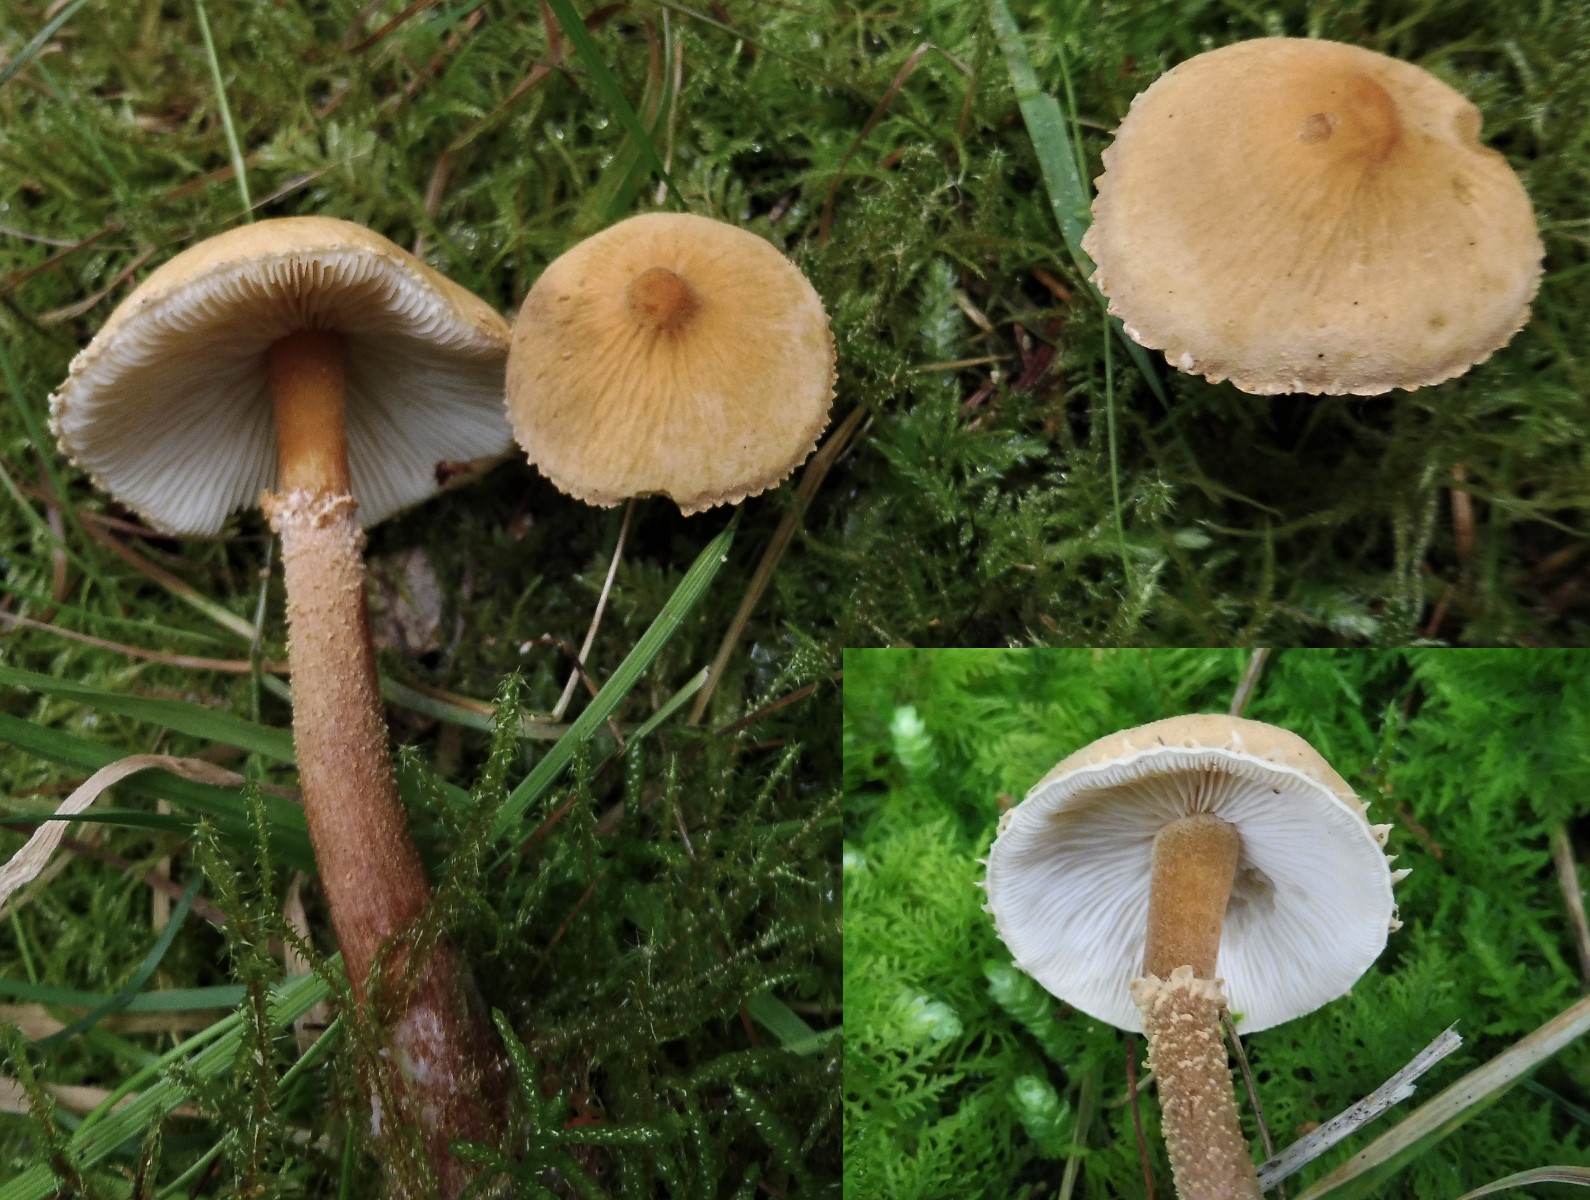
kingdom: Fungi
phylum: Basidiomycota
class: Agaricomycetes
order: Agaricales
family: Tricholomataceae
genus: Cystoderma
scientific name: Cystoderma amianthinum
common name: okkergul grynhat
